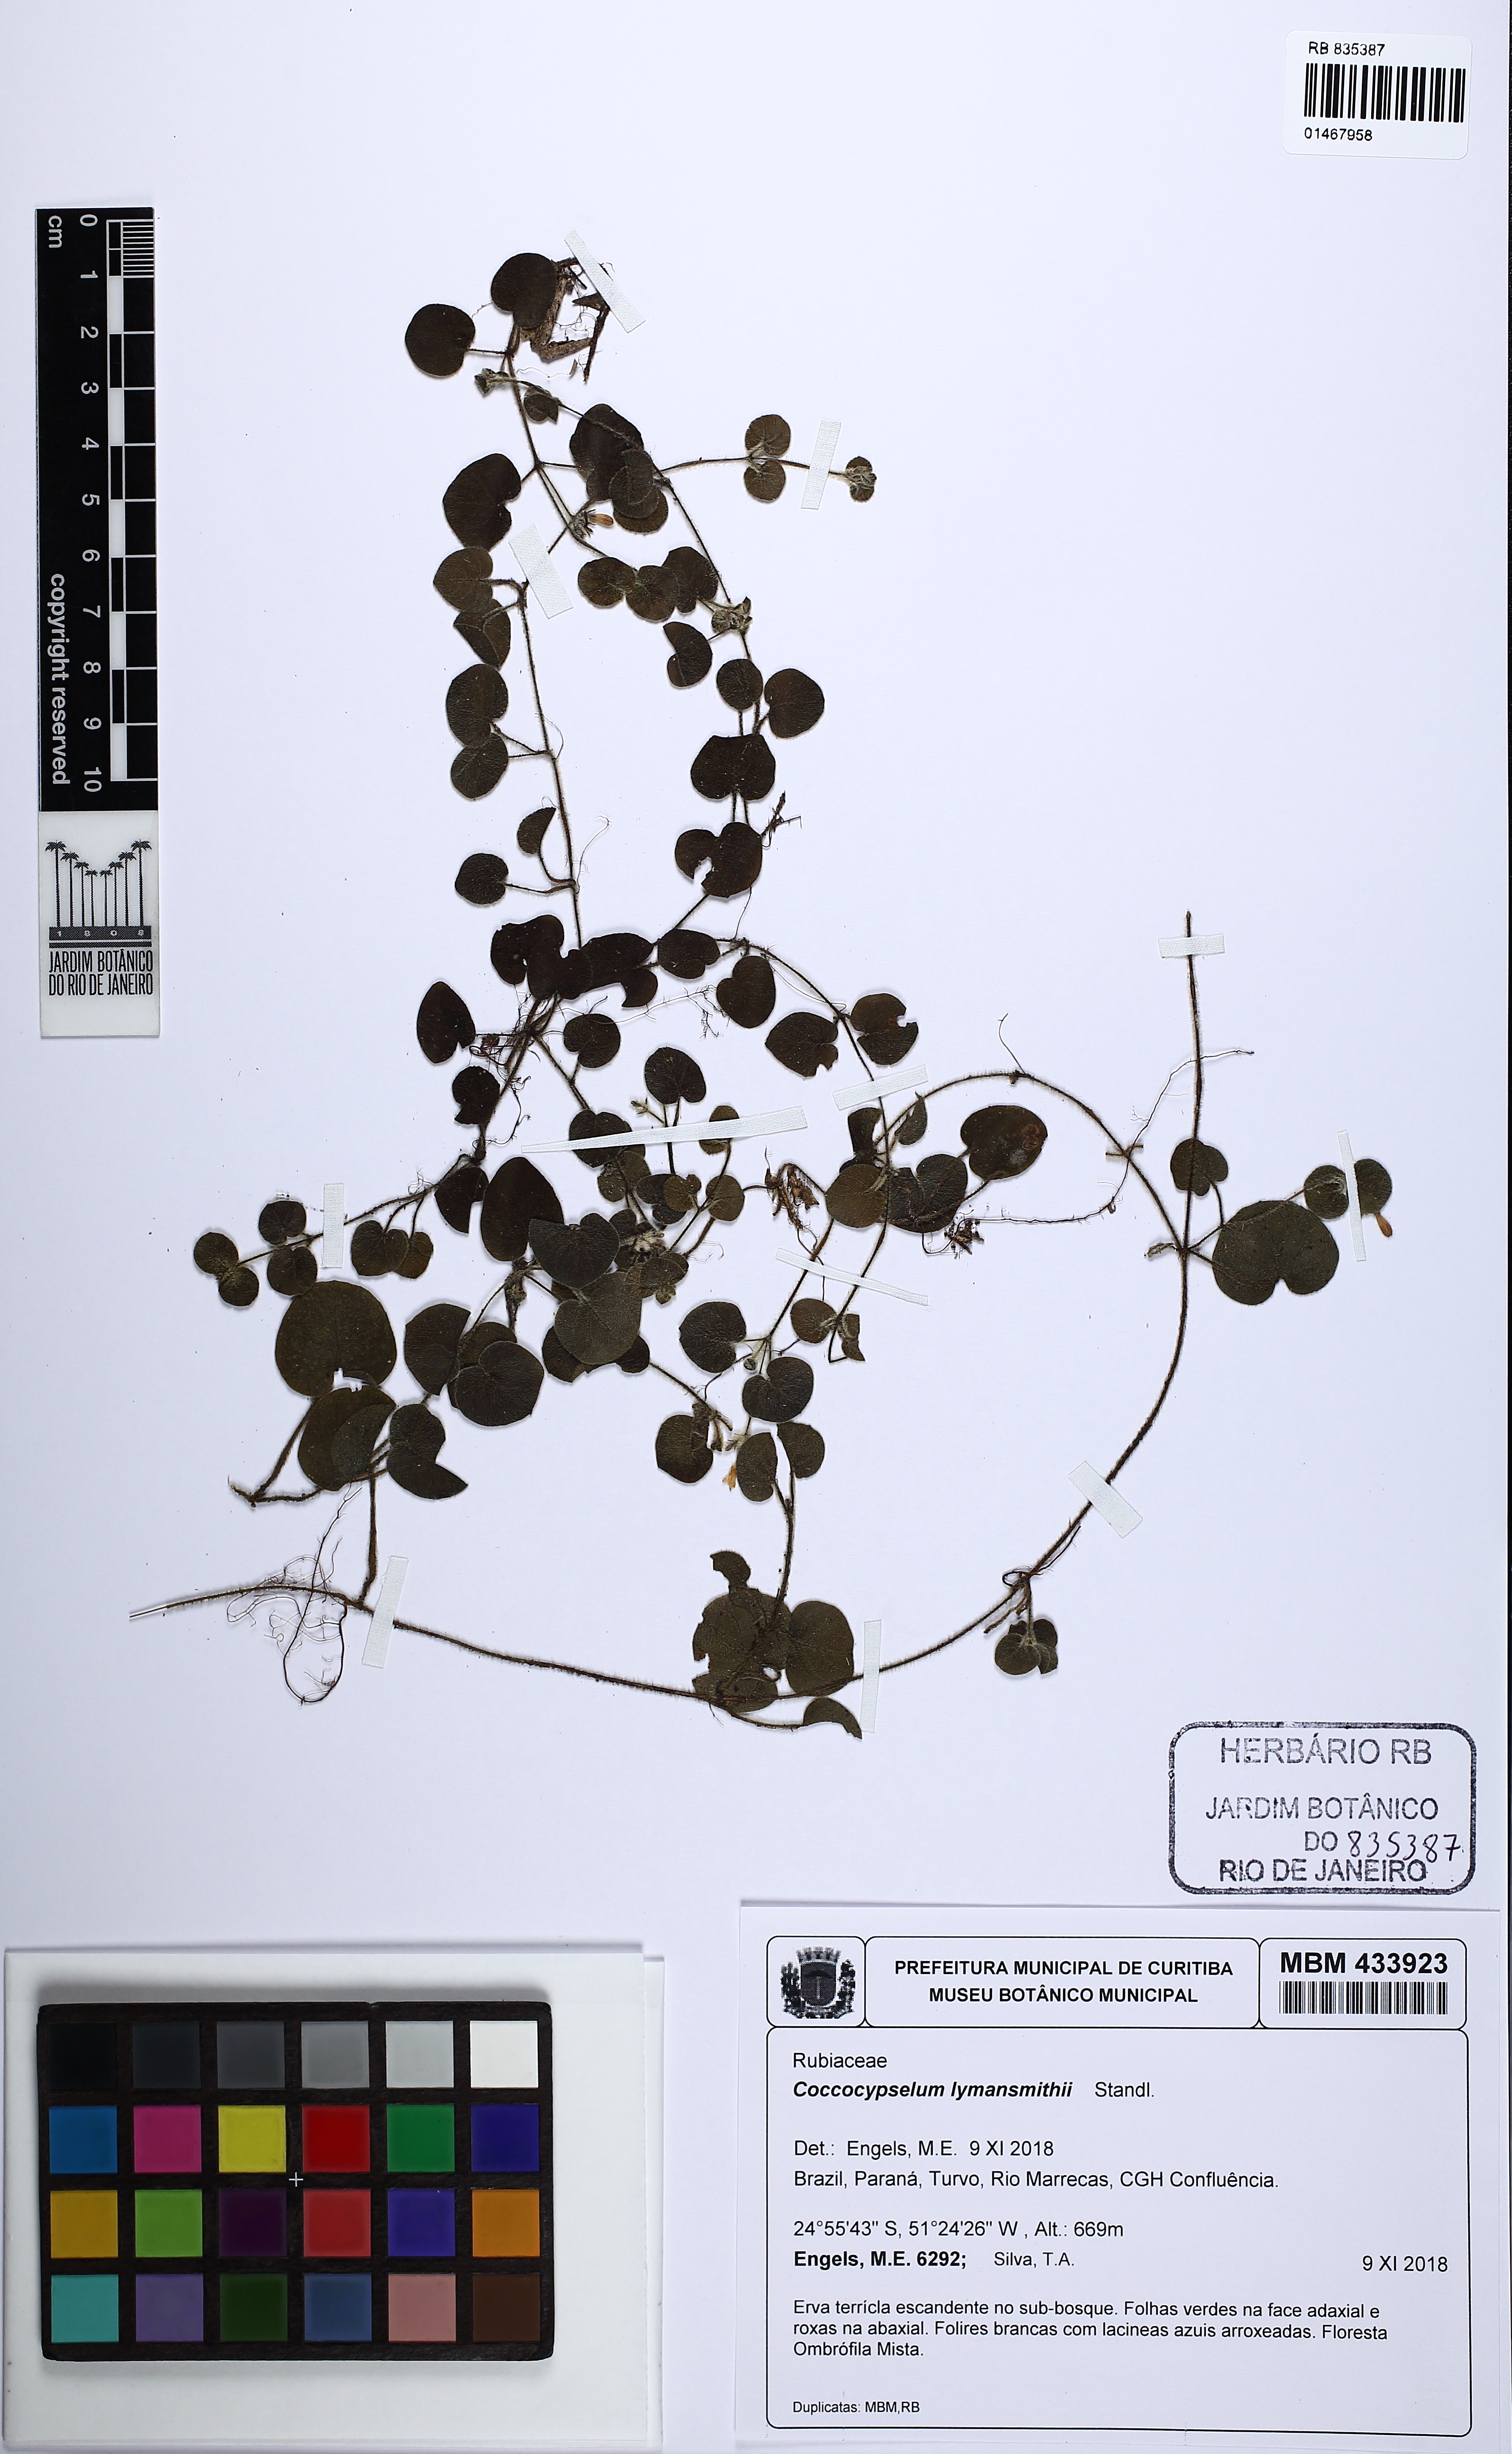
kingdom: Plantae
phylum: Tracheophyta
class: Magnoliopsida
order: Gentianales
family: Rubiaceae
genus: Coccocypselum
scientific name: Coccocypselum lymansmithii
